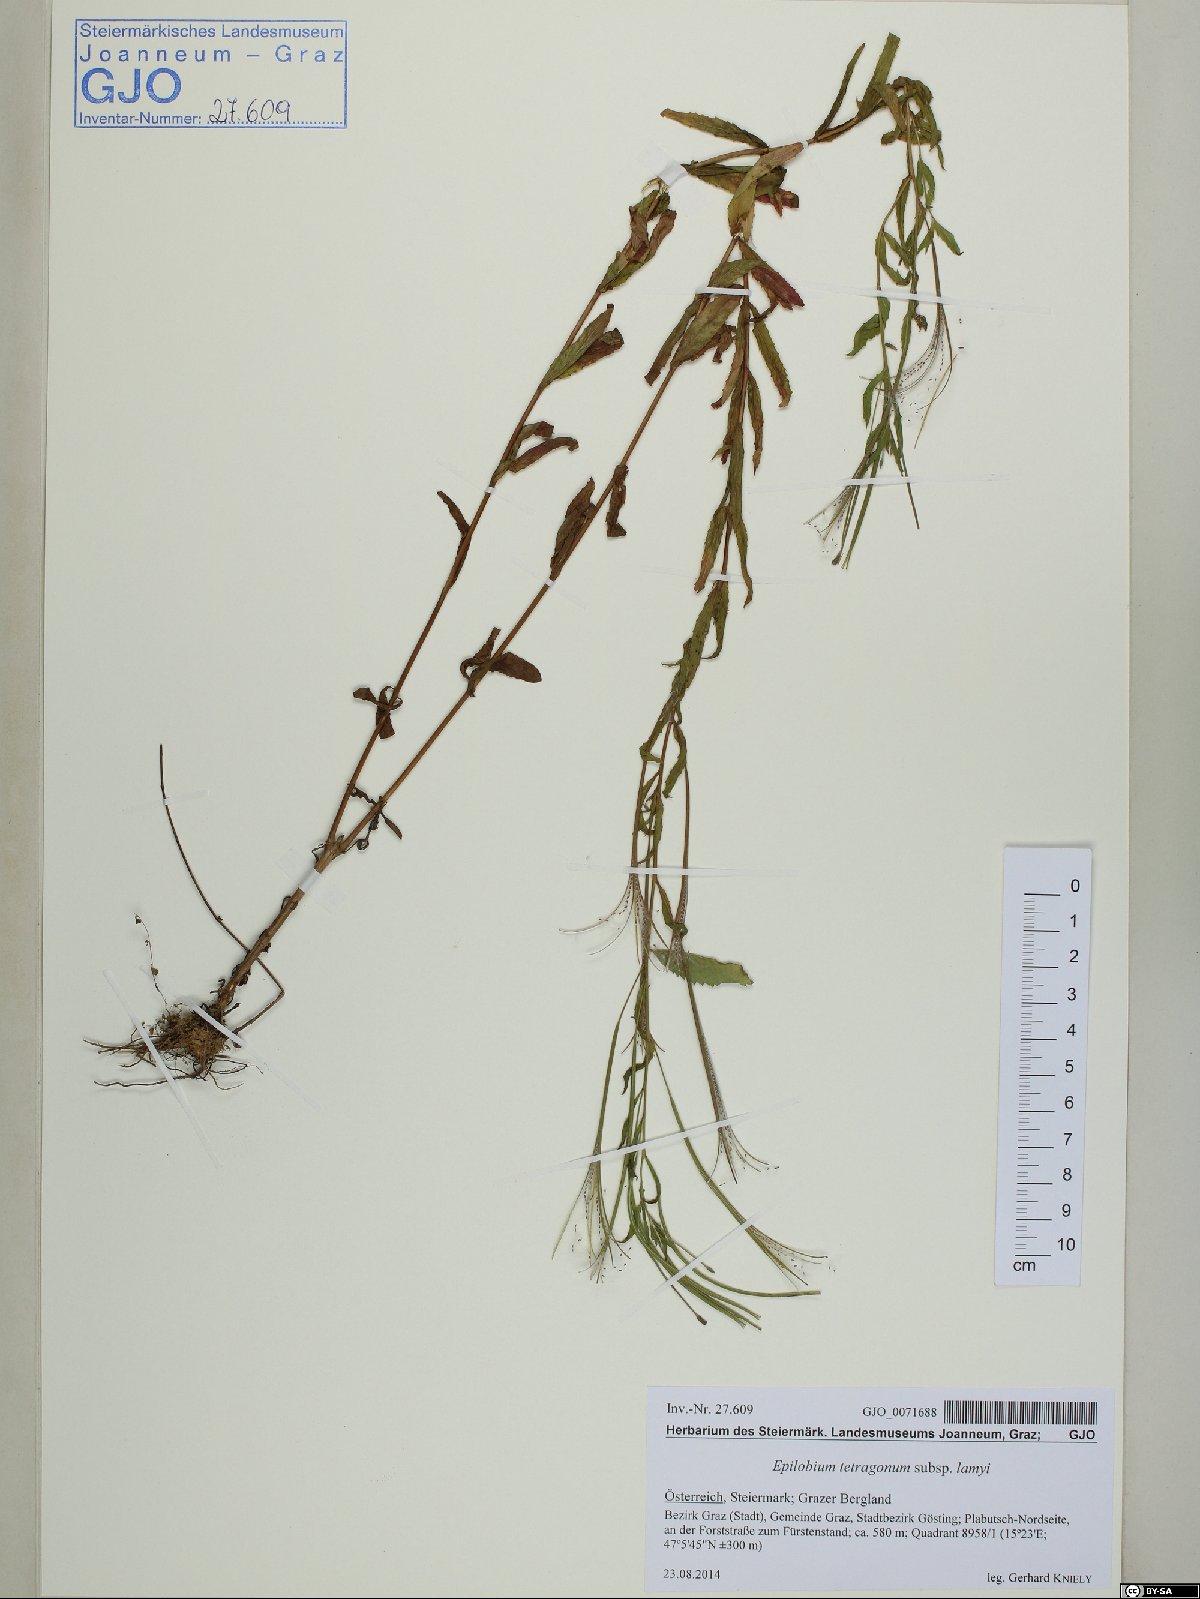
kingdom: Plantae
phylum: Tracheophyta
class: Magnoliopsida
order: Myrtales
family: Onagraceae
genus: Epilobium
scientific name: Epilobium tetragonum
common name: Square-stemmed willowherb
